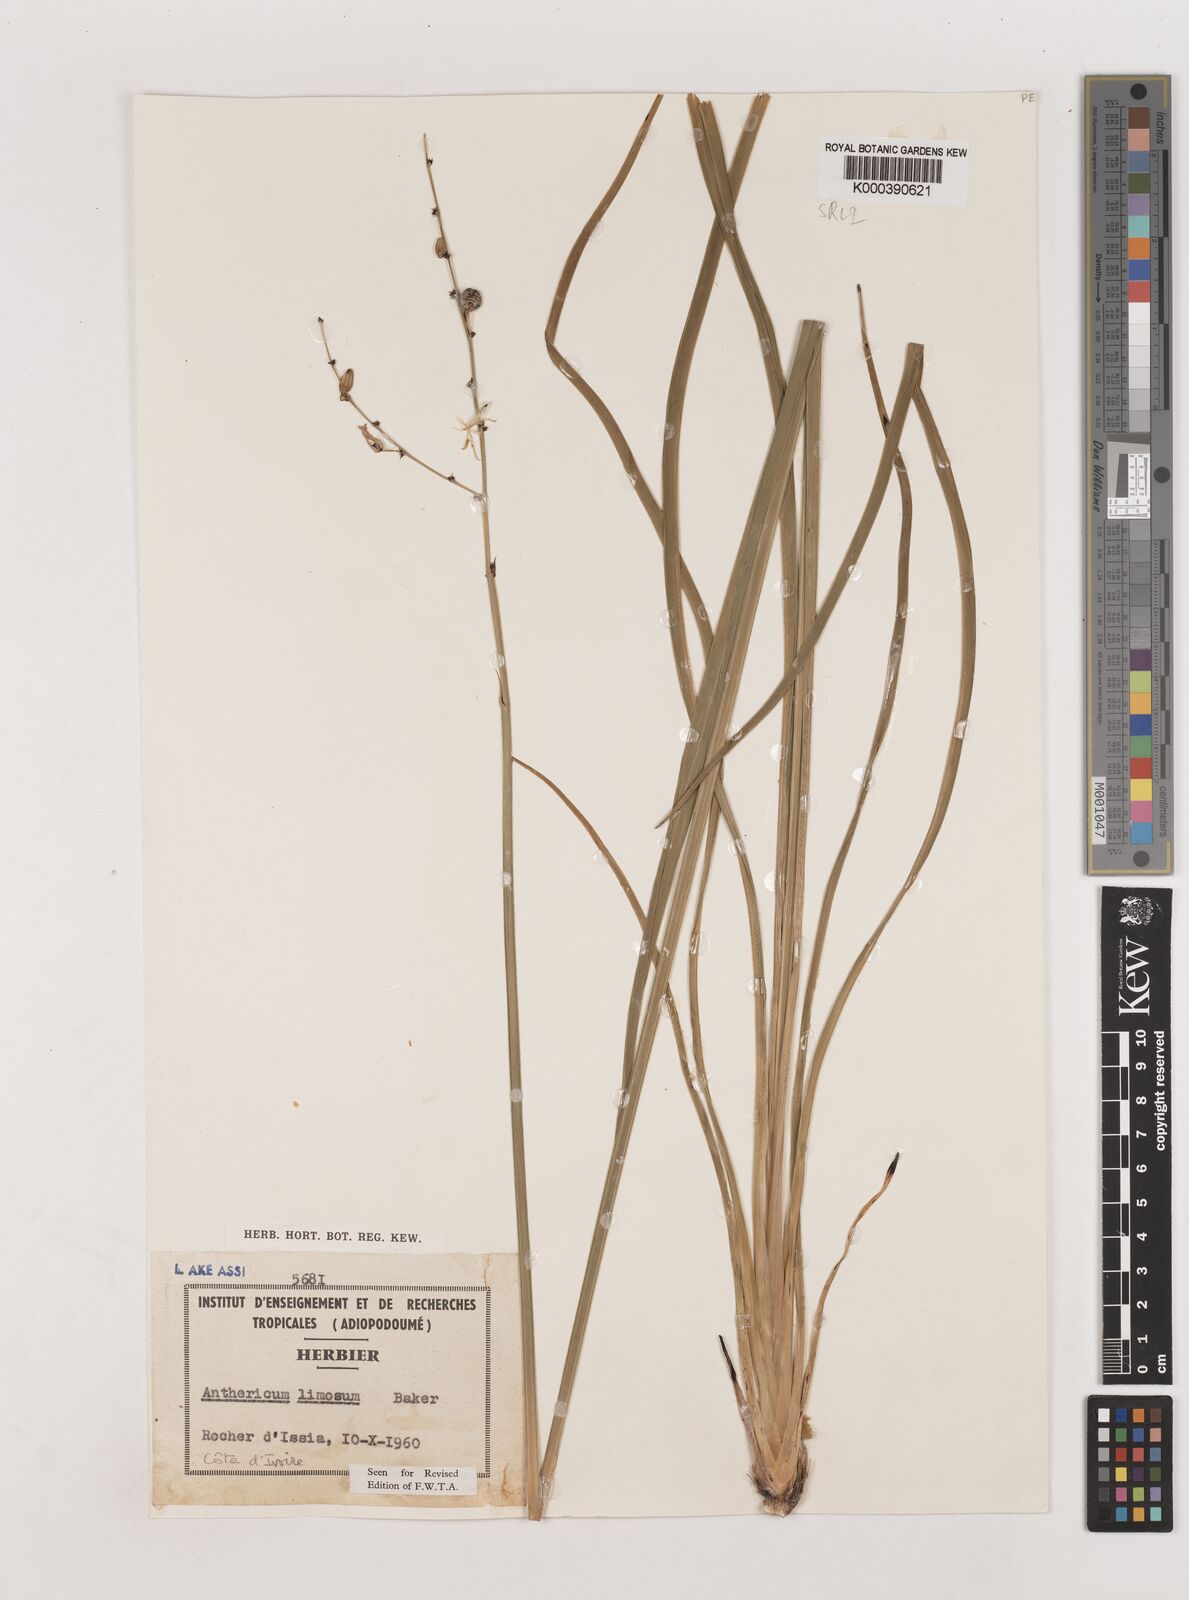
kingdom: Plantae
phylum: Tracheophyta
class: Liliopsida
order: Asparagales
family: Asparagaceae
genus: Chlorophytum
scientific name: Chlorophytum limosum
